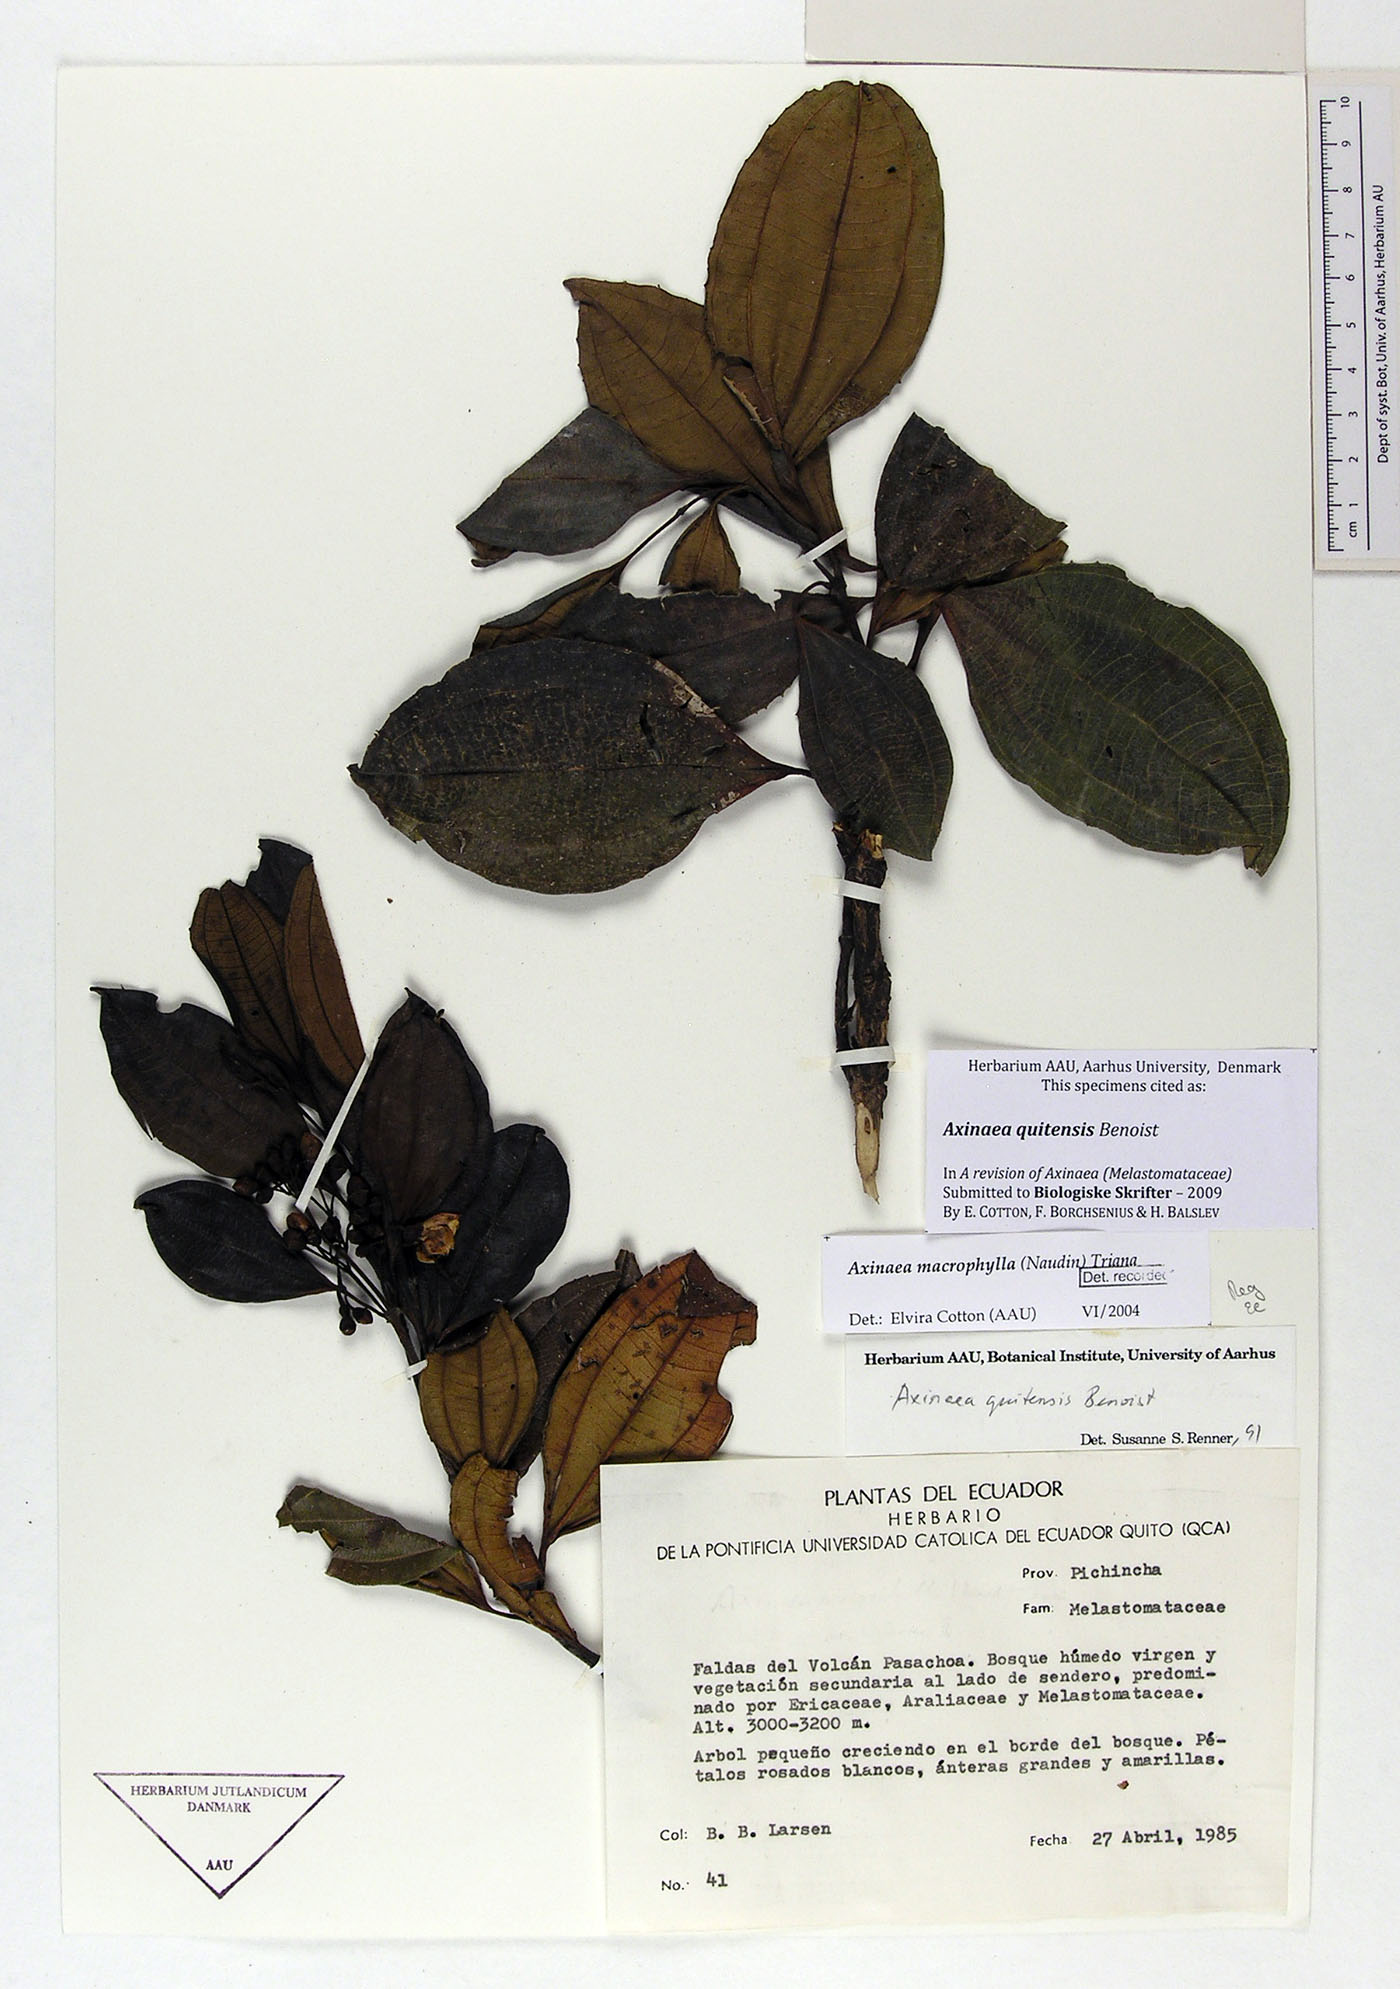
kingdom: Plantae
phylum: Tracheophyta
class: Magnoliopsida
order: Myrtales
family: Melastomataceae
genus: Axinaea
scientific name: Axinaea quitensis
